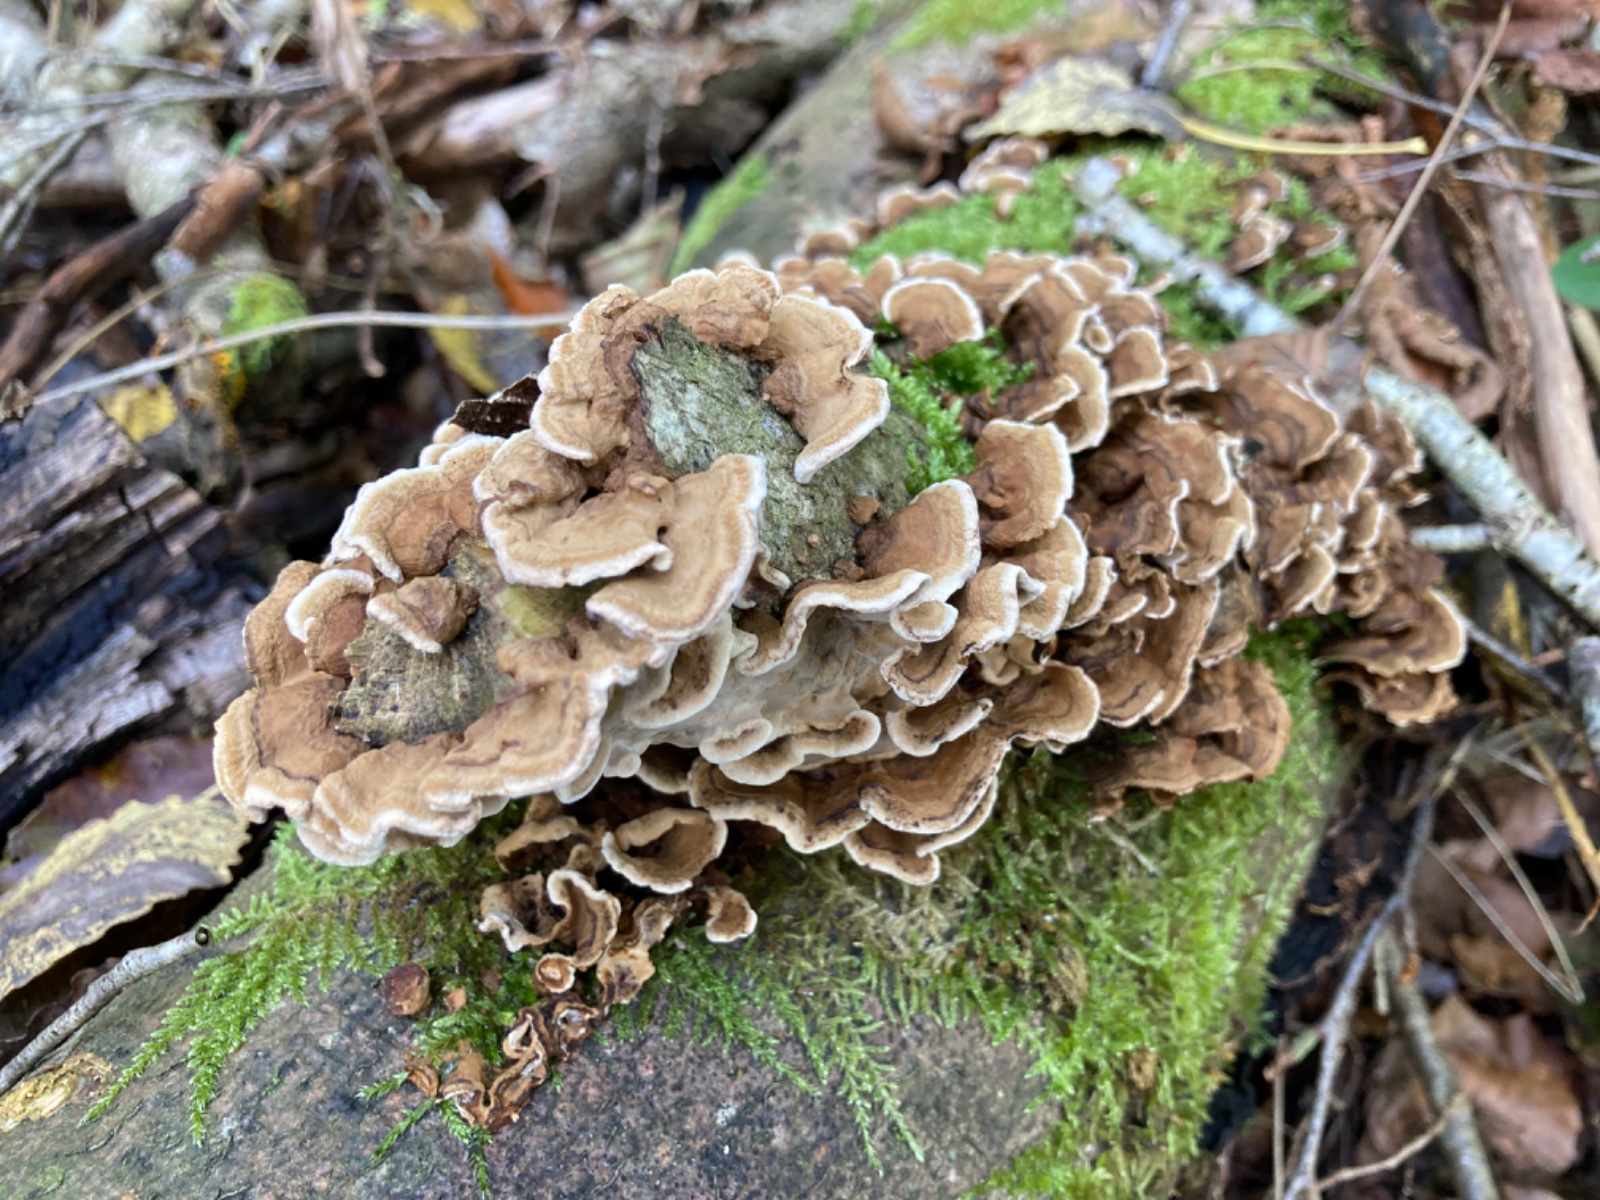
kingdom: Fungi
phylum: Basidiomycota
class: Agaricomycetes
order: Polyporales
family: Polyporaceae
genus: Trametes
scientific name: Trametes versicolor
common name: broget læderporesvamp
